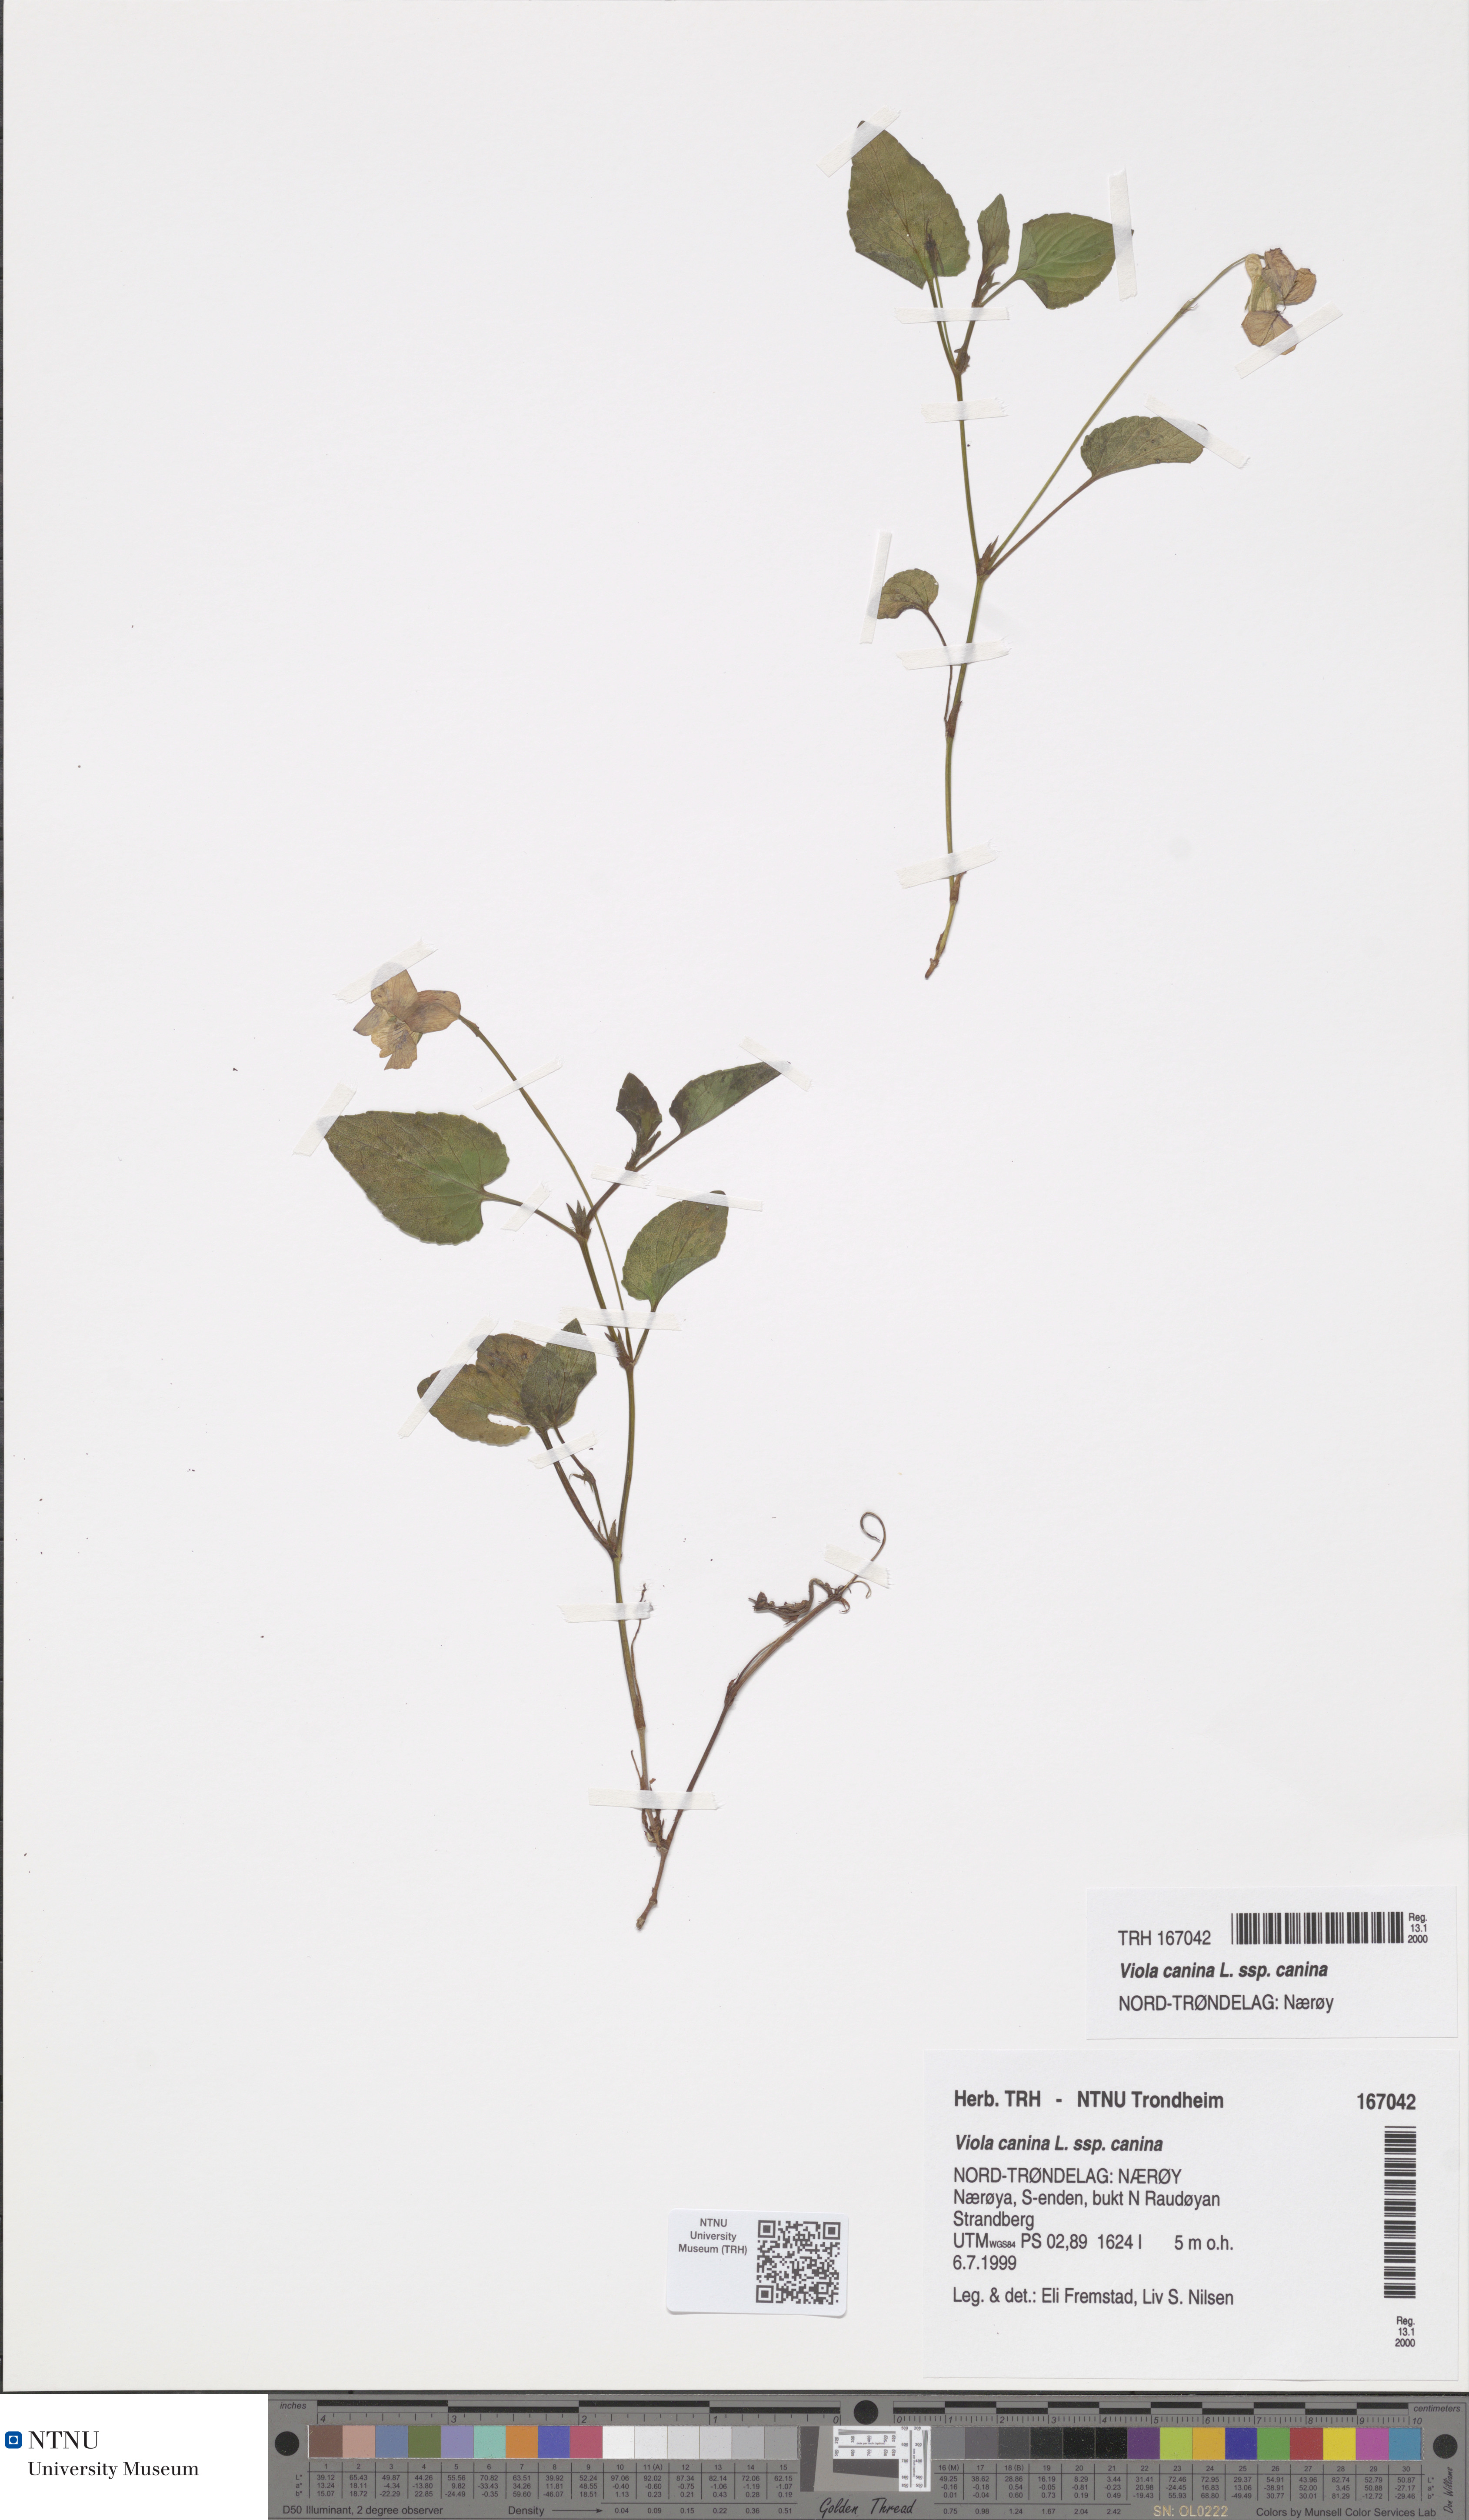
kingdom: Plantae
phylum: Tracheophyta
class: Magnoliopsida
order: Malpighiales
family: Violaceae
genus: Viola
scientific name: Viola canina
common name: Heath dog-violet
